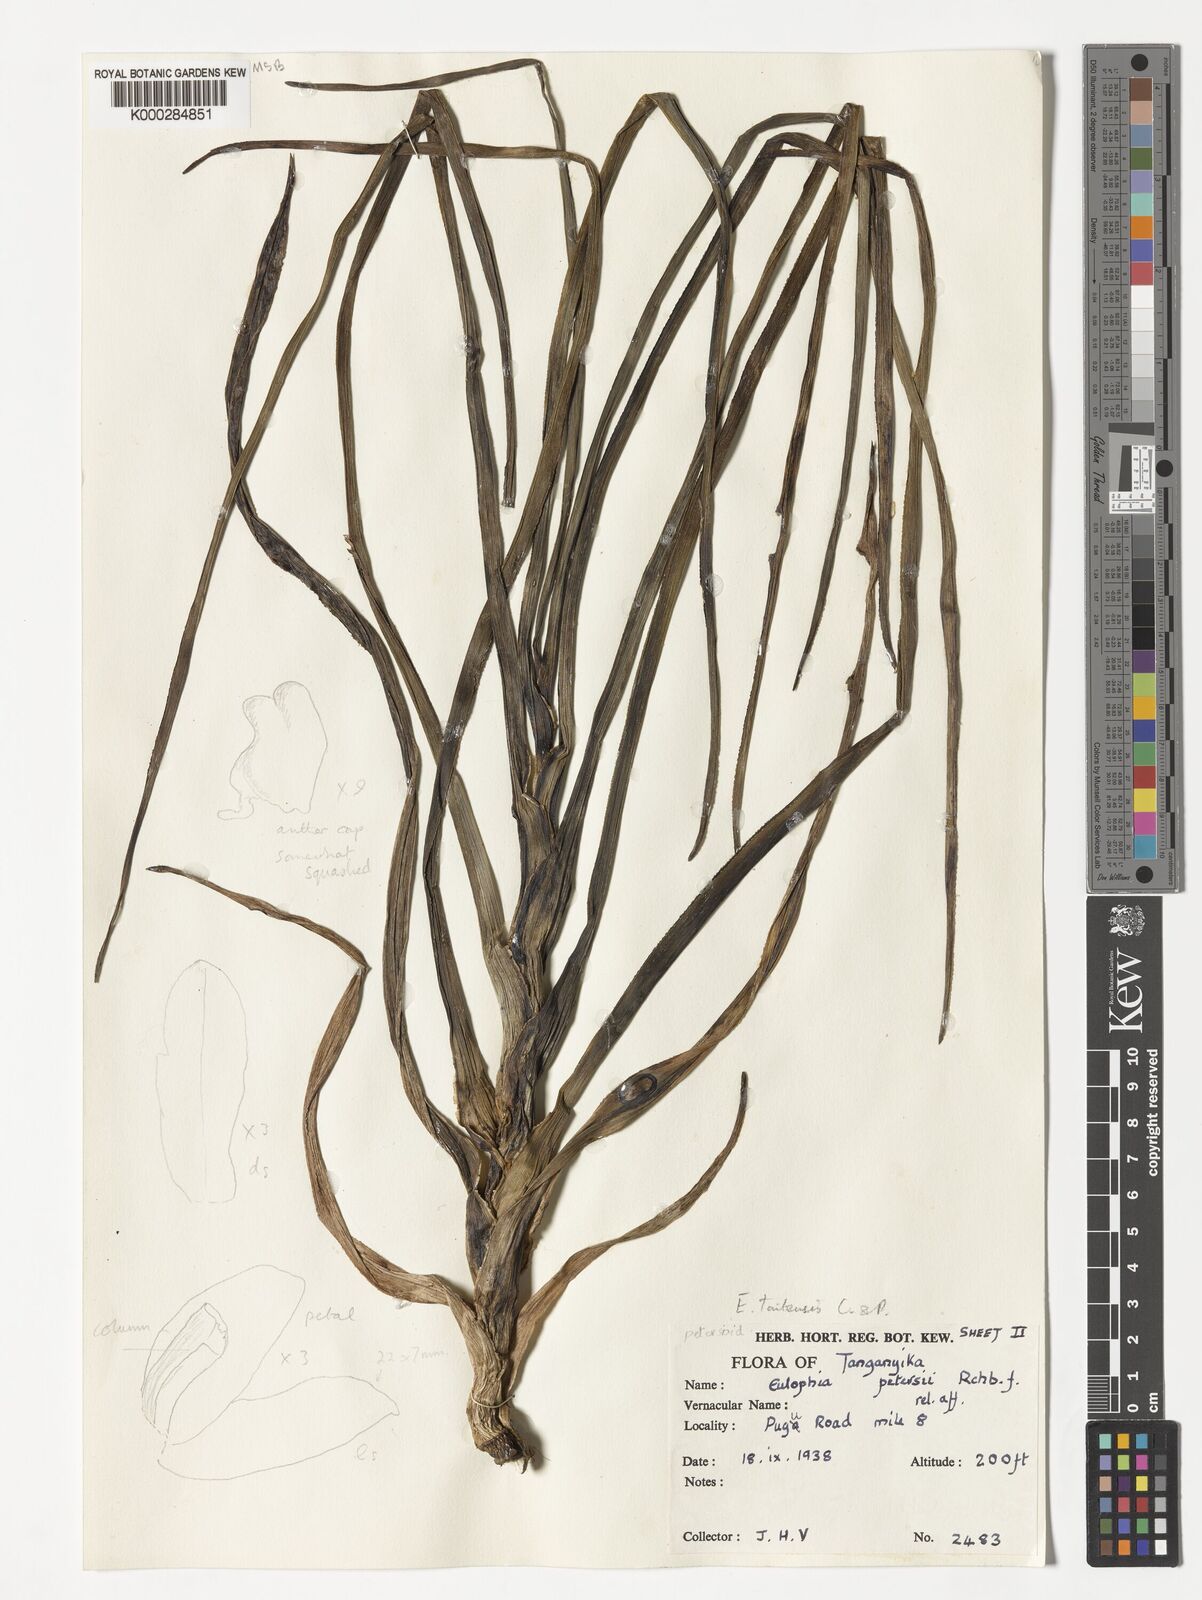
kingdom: Plantae
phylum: Tracheophyta
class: Liliopsida
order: Asparagales
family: Orchidaceae
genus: Eulophia
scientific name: Eulophia taitensis
